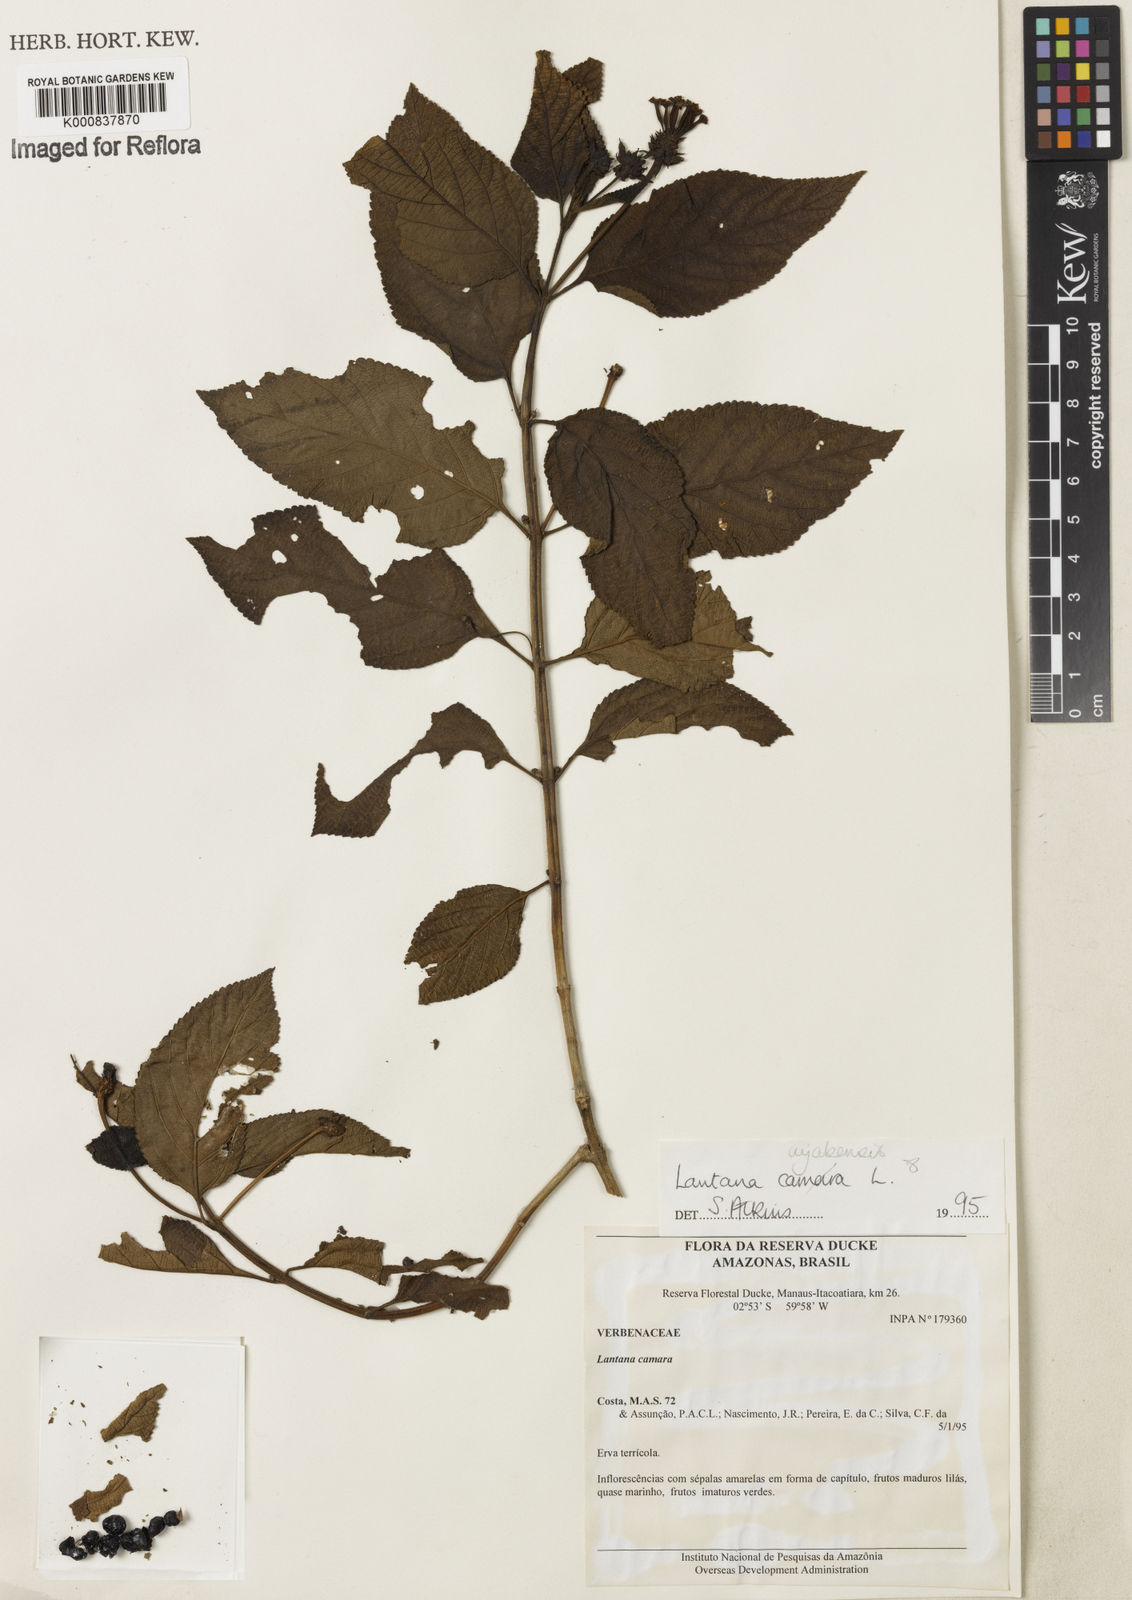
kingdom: Plantae
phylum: Tracheophyta
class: Magnoliopsida
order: Lamiales
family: Verbenaceae
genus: Lantana
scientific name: Lantana cujabensis
